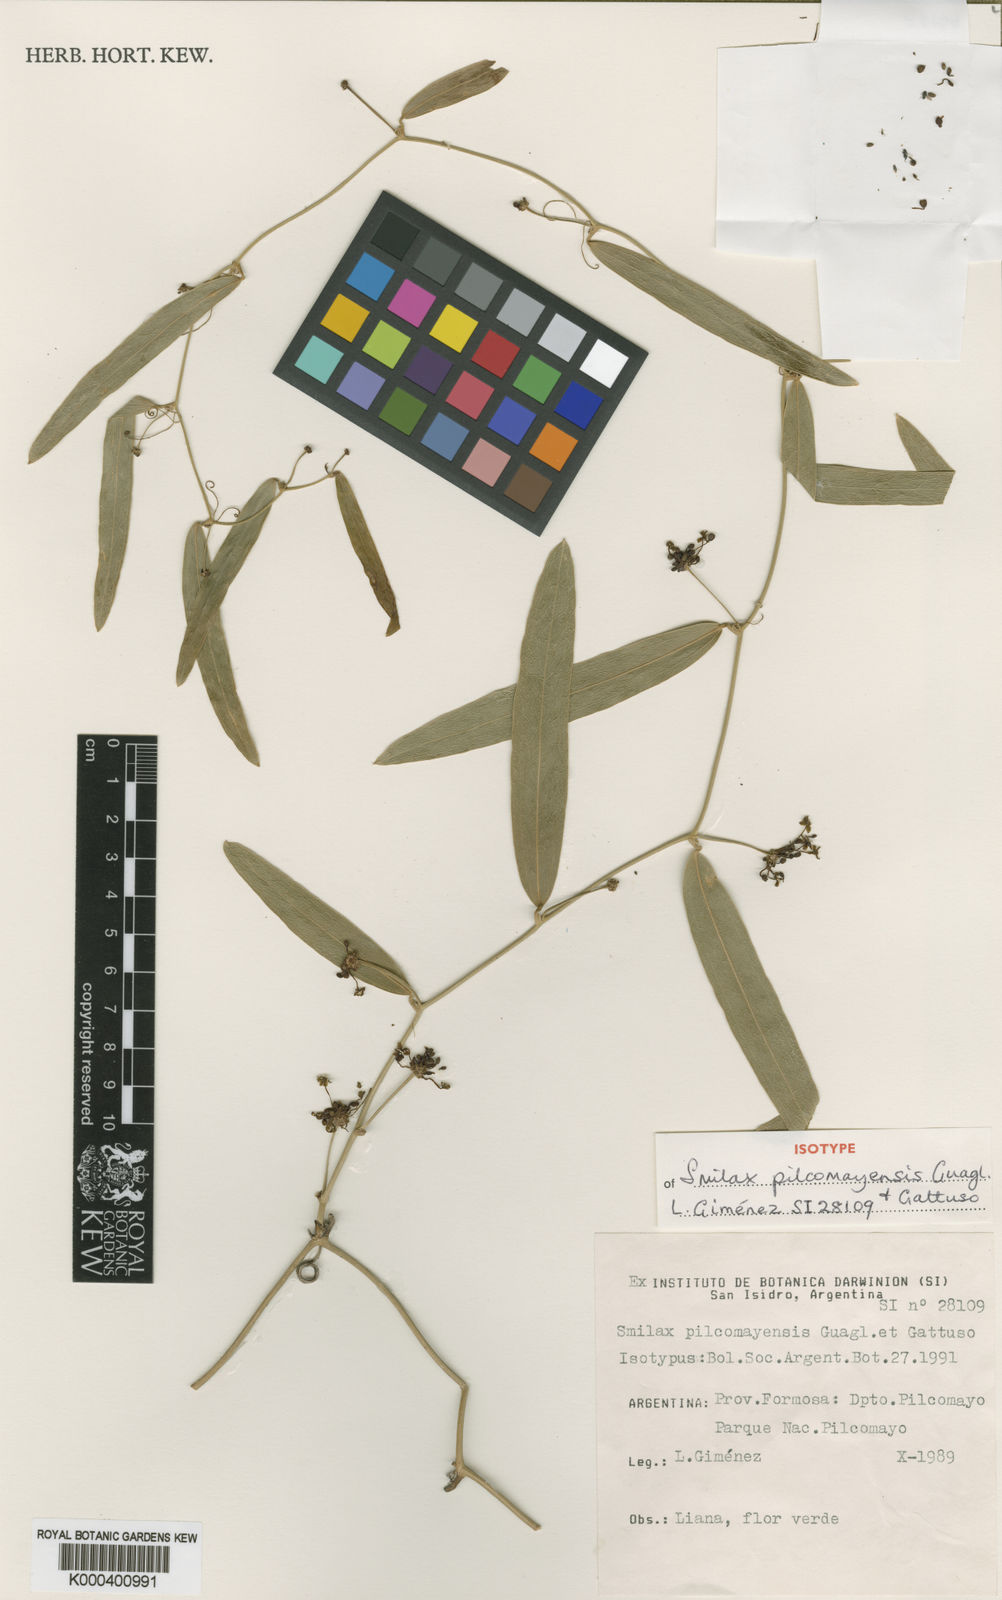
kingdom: Plantae
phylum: Tracheophyta
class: Liliopsida
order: Liliales
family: Smilacaceae
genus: Smilax
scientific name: Smilax pilcomayensis
